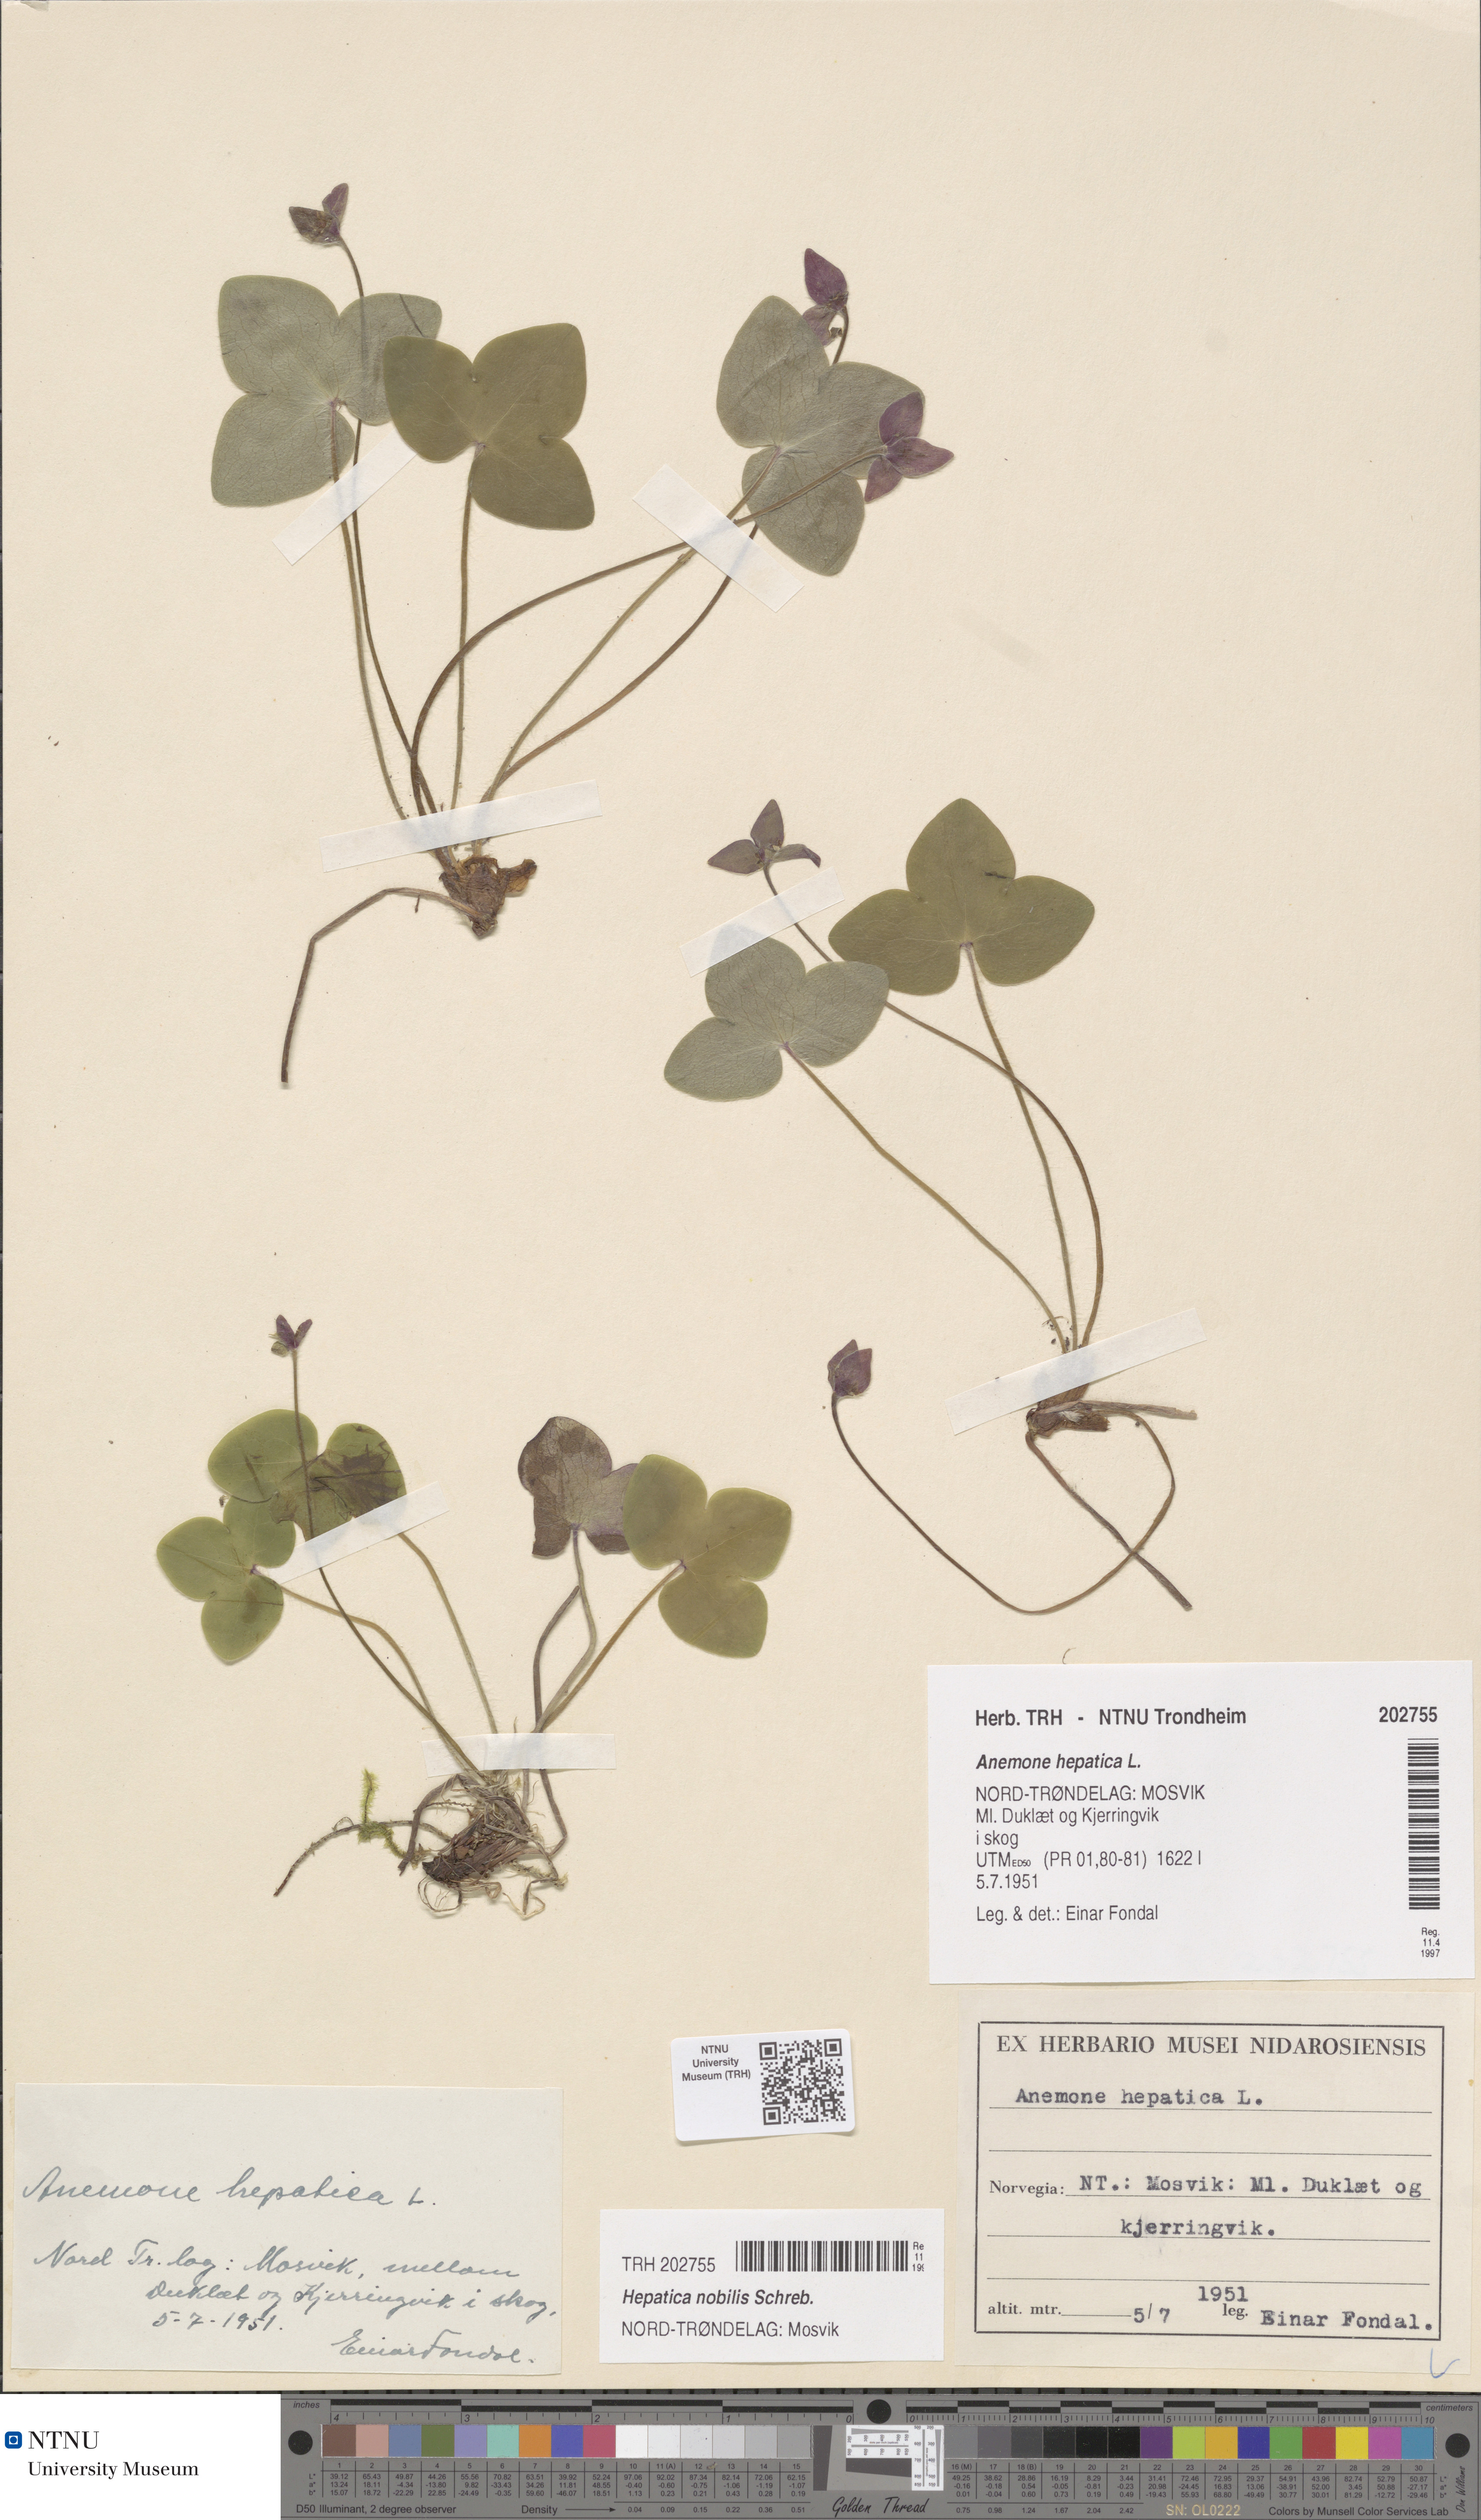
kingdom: Plantae
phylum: Tracheophyta
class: Magnoliopsida
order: Ranunculales
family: Ranunculaceae
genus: Hepatica
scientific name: Hepatica nobilis
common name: Liverleaf
